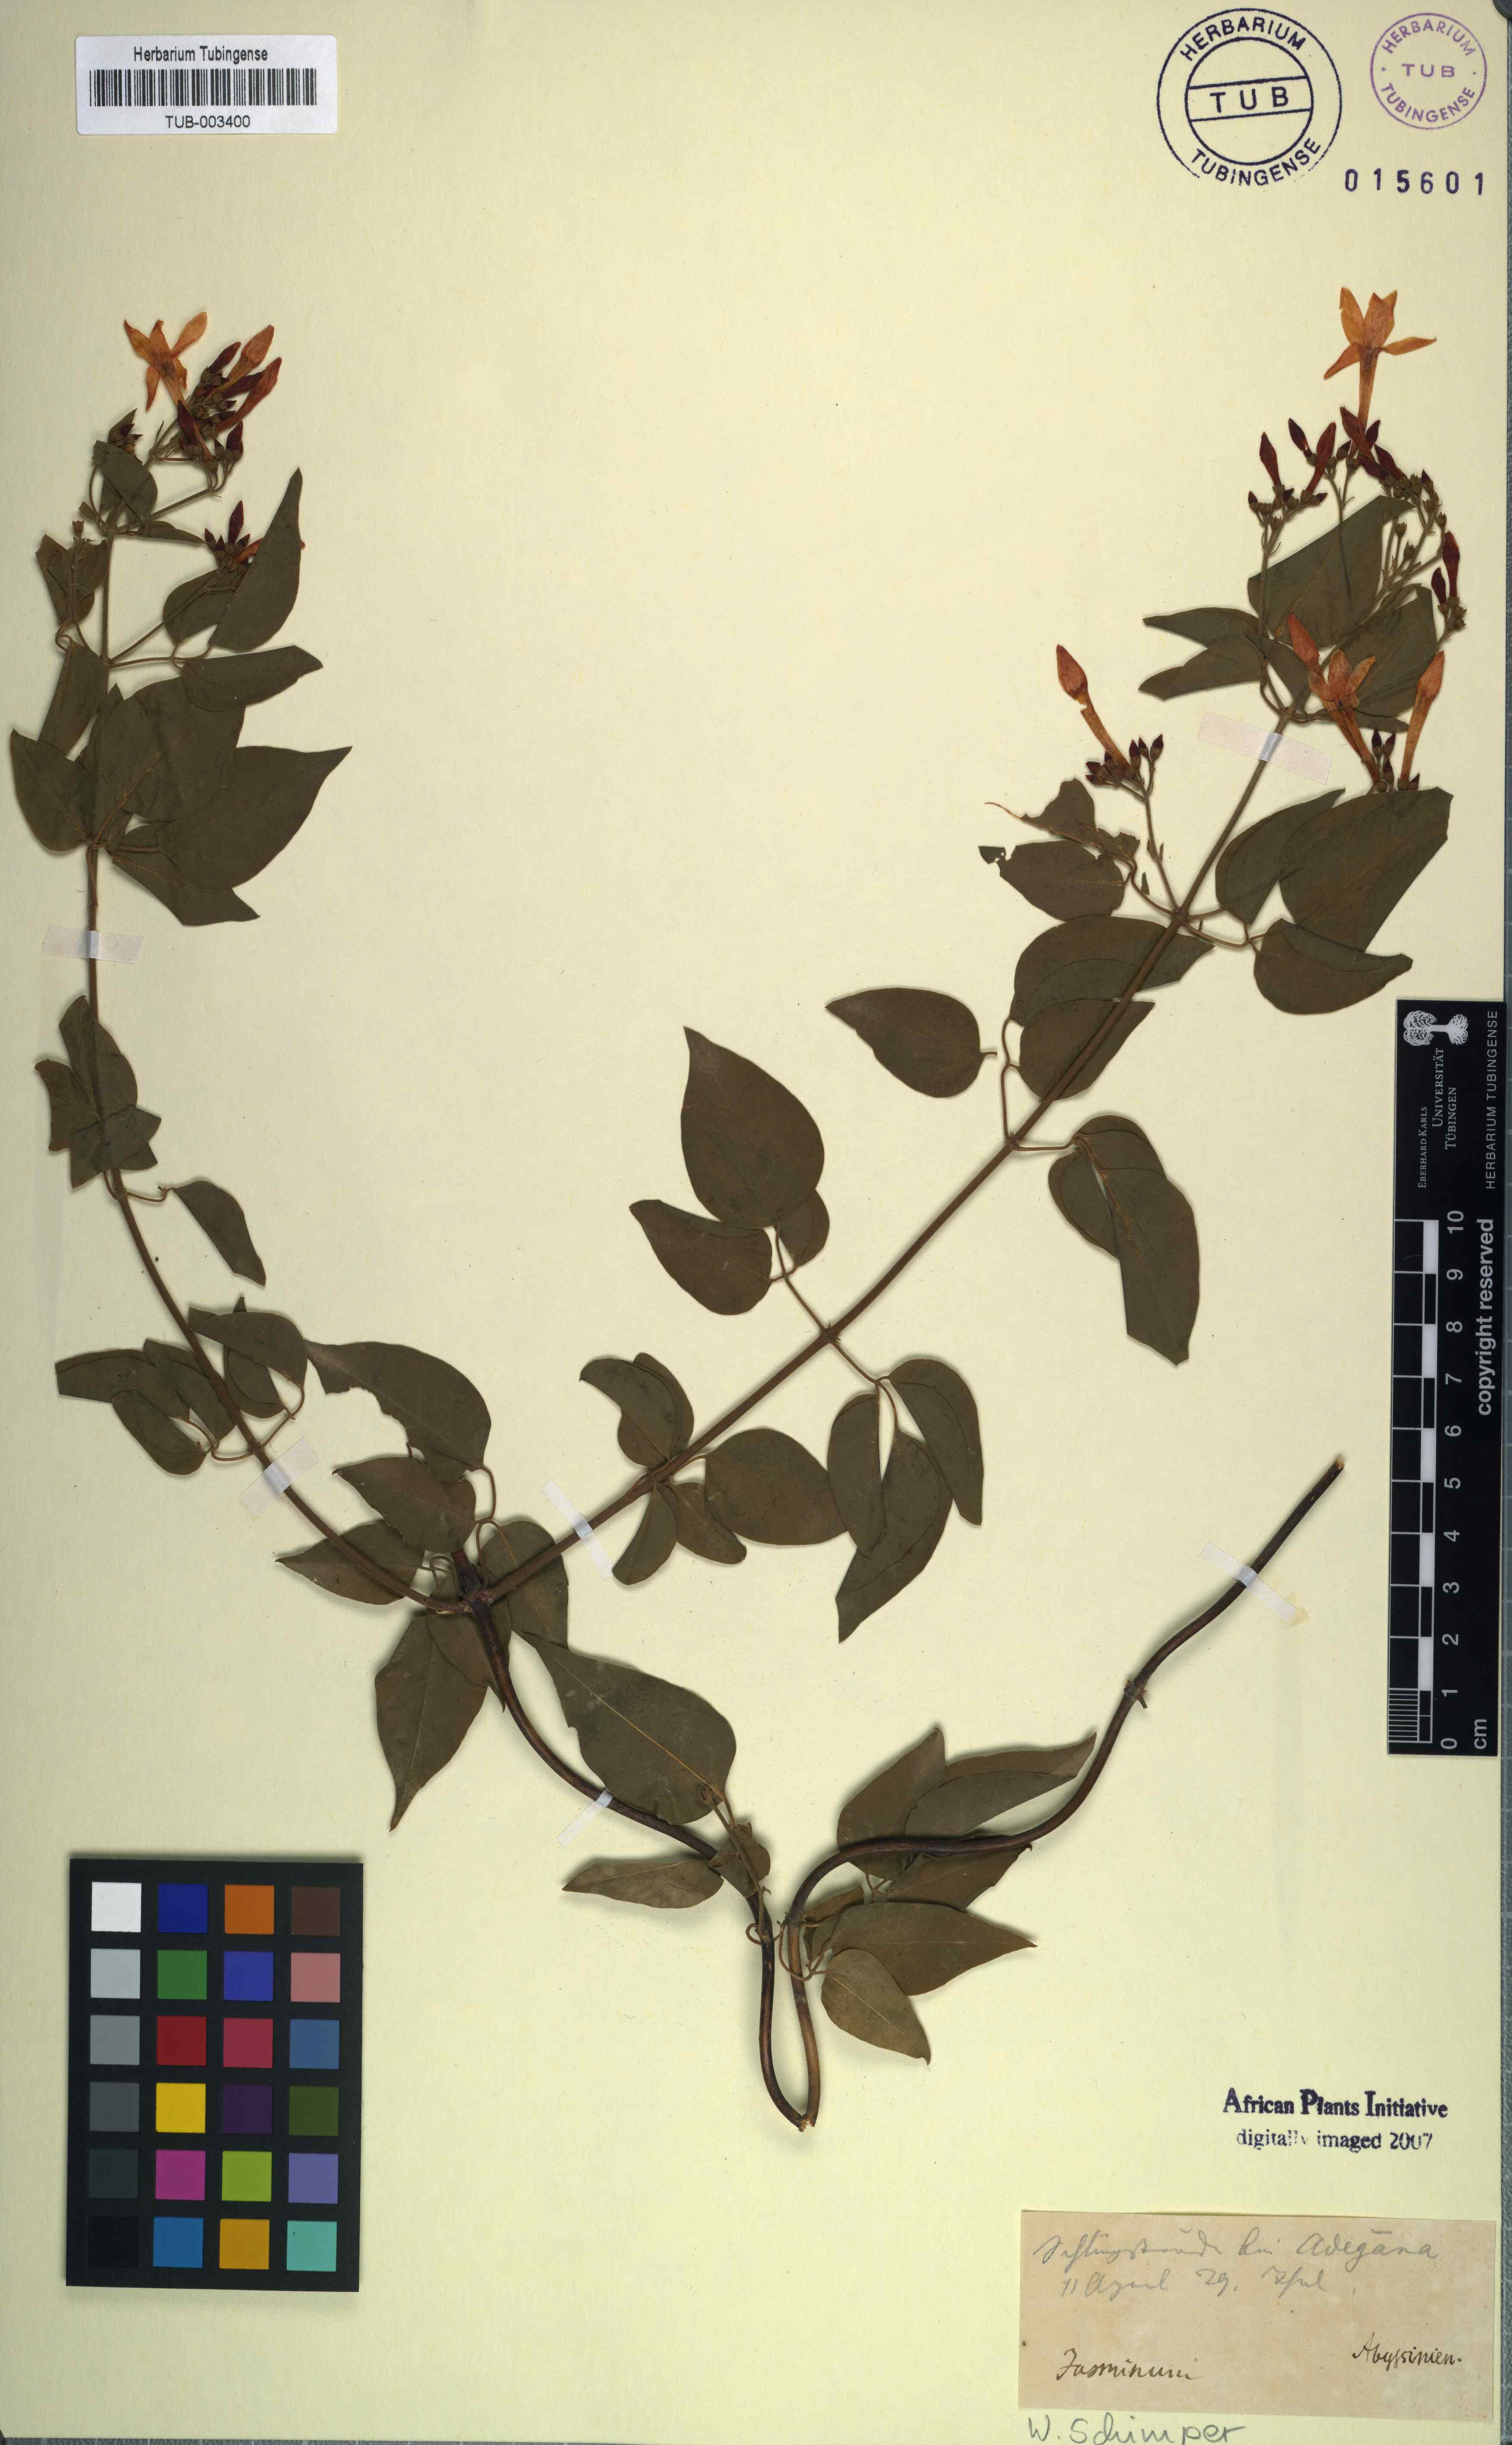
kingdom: Plantae
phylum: Tracheophyta
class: Magnoliopsida
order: Lamiales
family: Oleaceae
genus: Jasminum
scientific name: Jasminum
